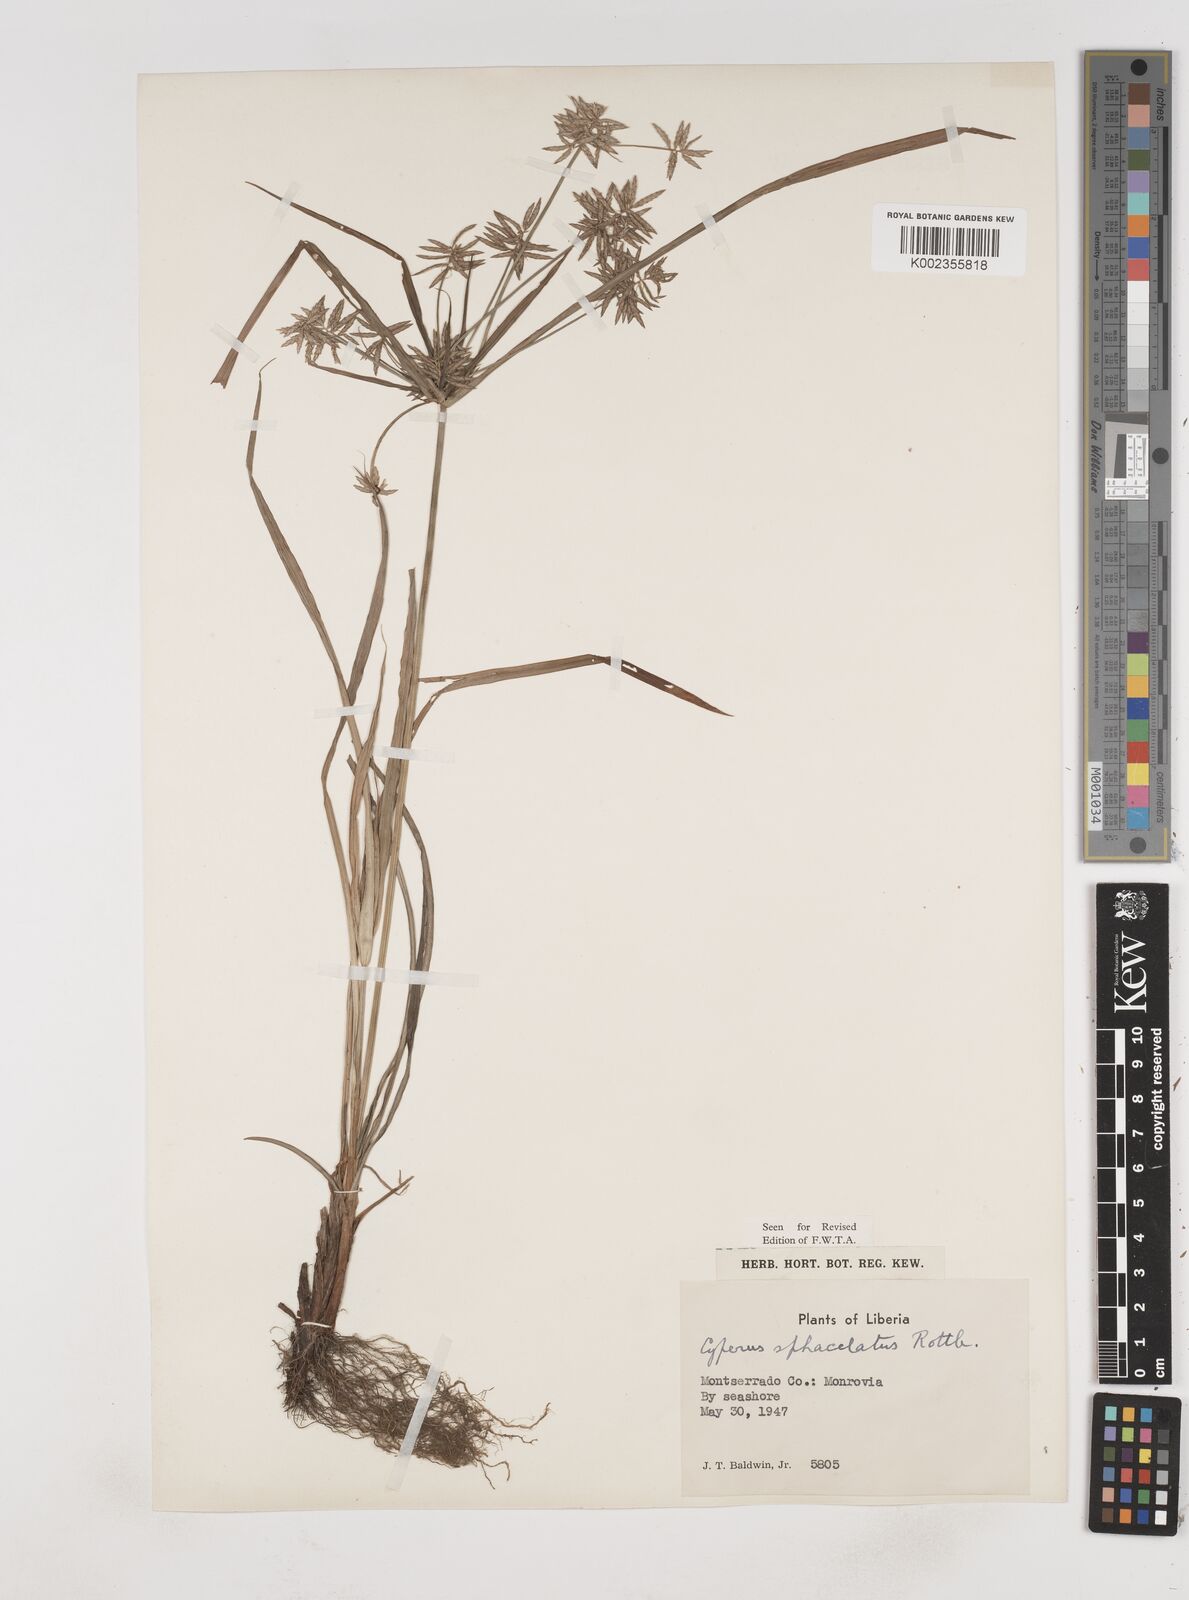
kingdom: Plantae
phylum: Tracheophyta
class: Liliopsida
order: Poales
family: Cyperaceae
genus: Cyperus
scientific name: Cyperus sphacelatus
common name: Roadside flatsedge
